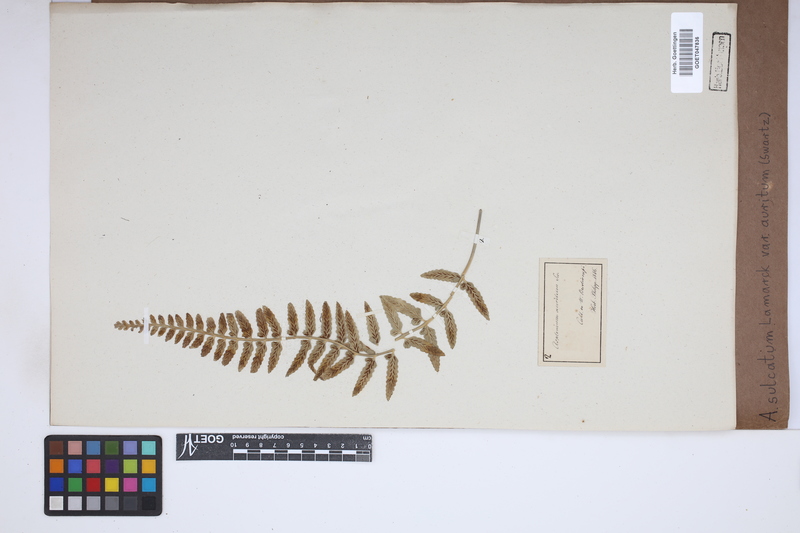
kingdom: Plantae
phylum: Tracheophyta
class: Polypodiopsida
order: Polypodiales
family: Aspleniaceae
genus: Asplenium
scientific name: Asplenium auritum
